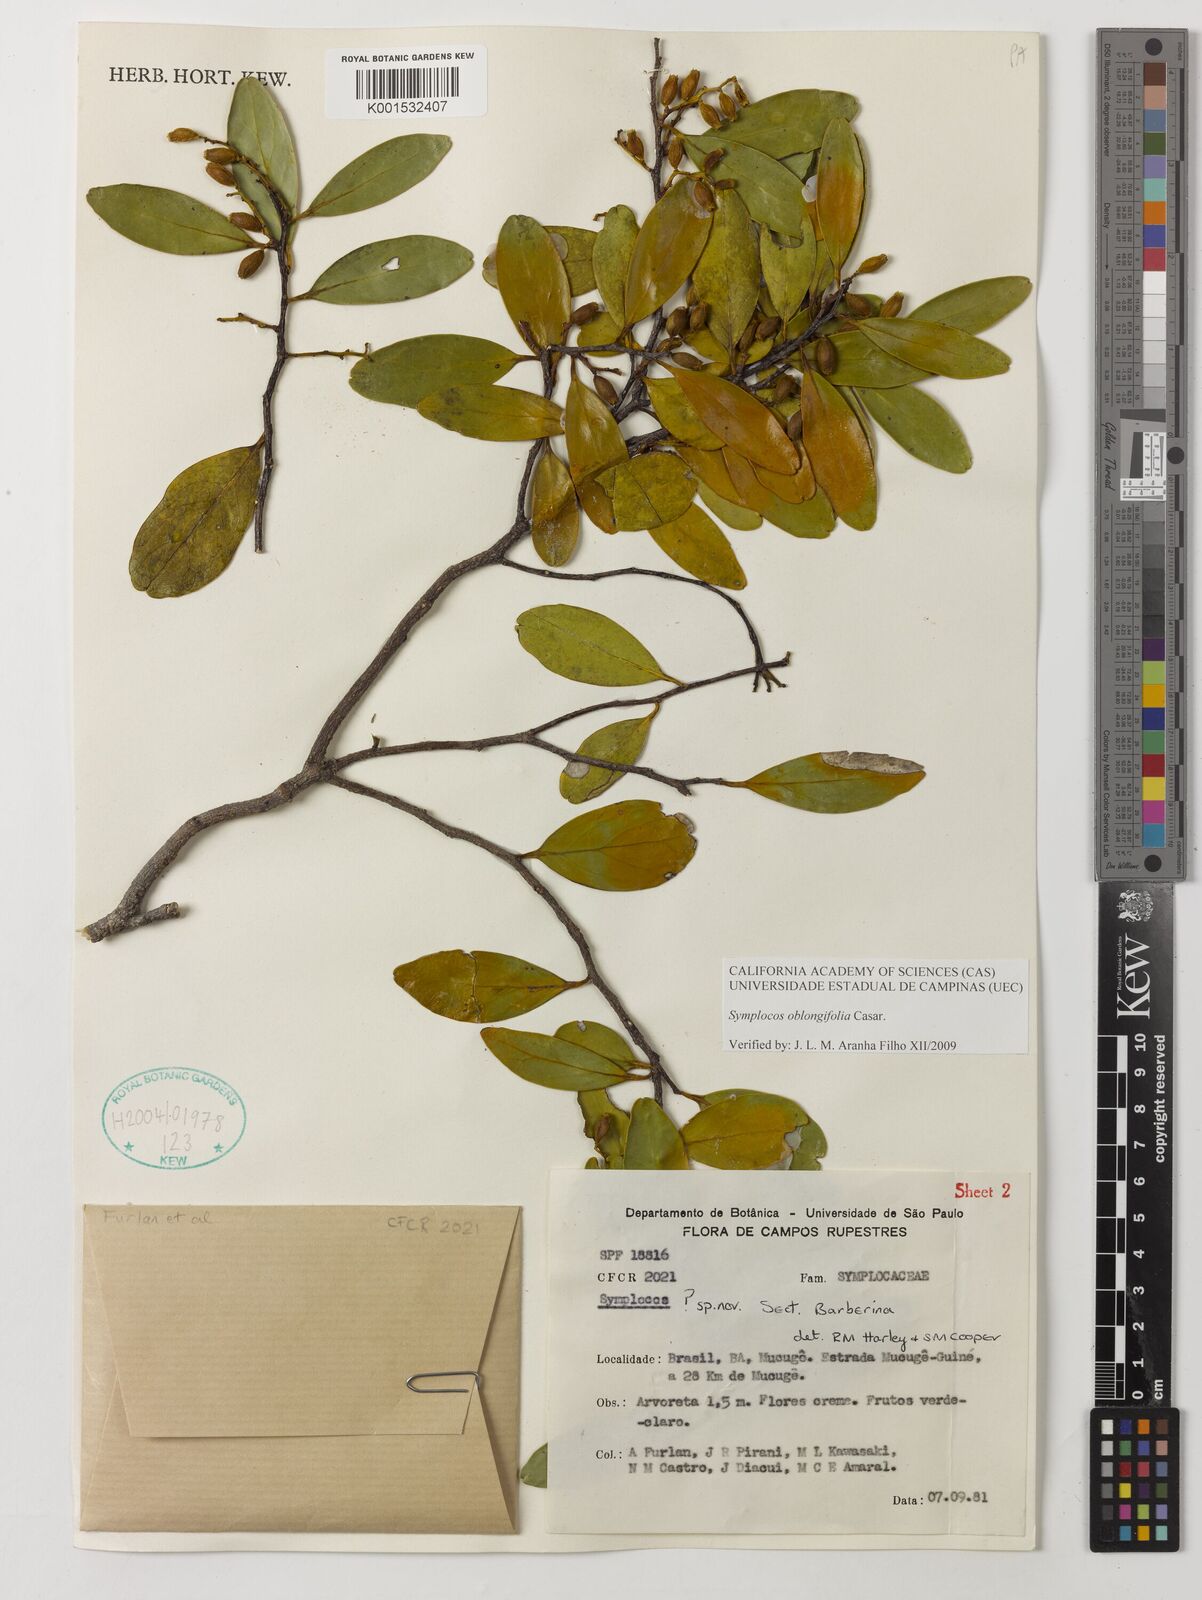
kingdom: Plantae
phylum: Tracheophyta
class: Magnoliopsida
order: Ericales
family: Symplocaceae
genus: Symplocos
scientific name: Symplocos oblongifolia
